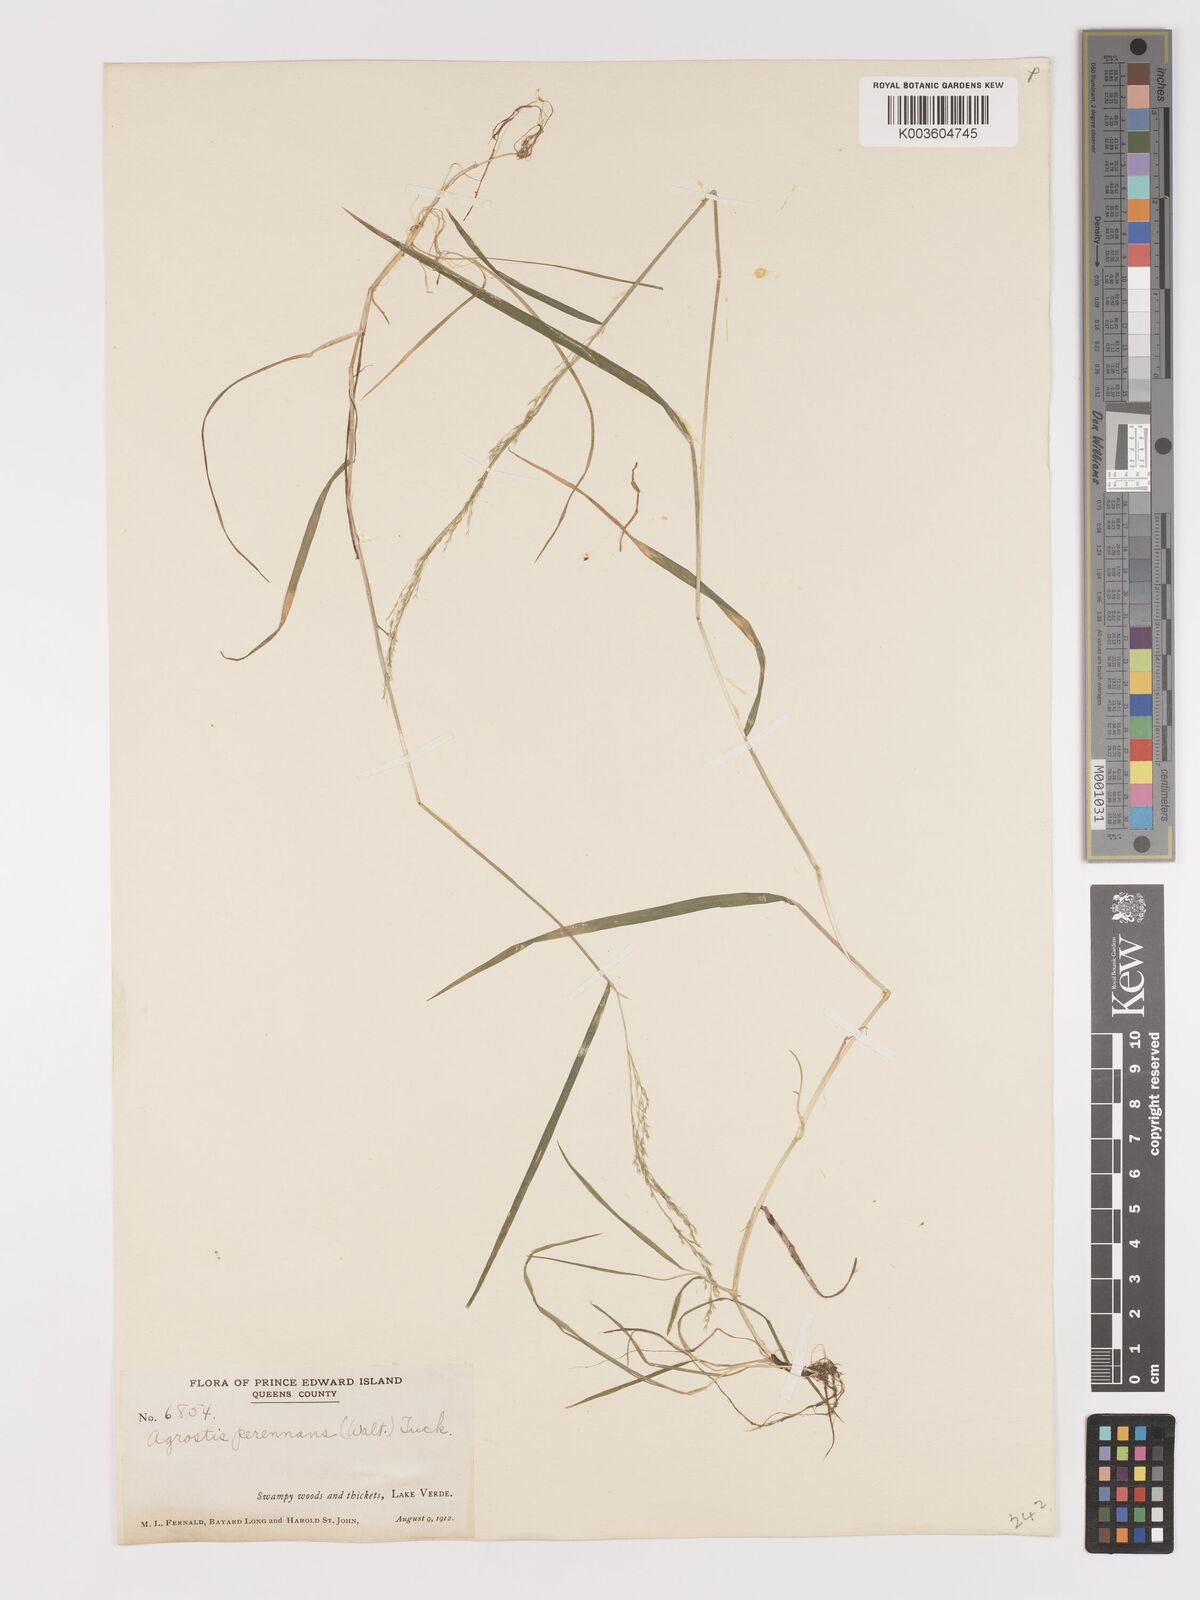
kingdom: Plantae
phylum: Tracheophyta
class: Liliopsida
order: Poales
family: Poaceae
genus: Agrostis
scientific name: Agrostis perennans
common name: Autumn bent
